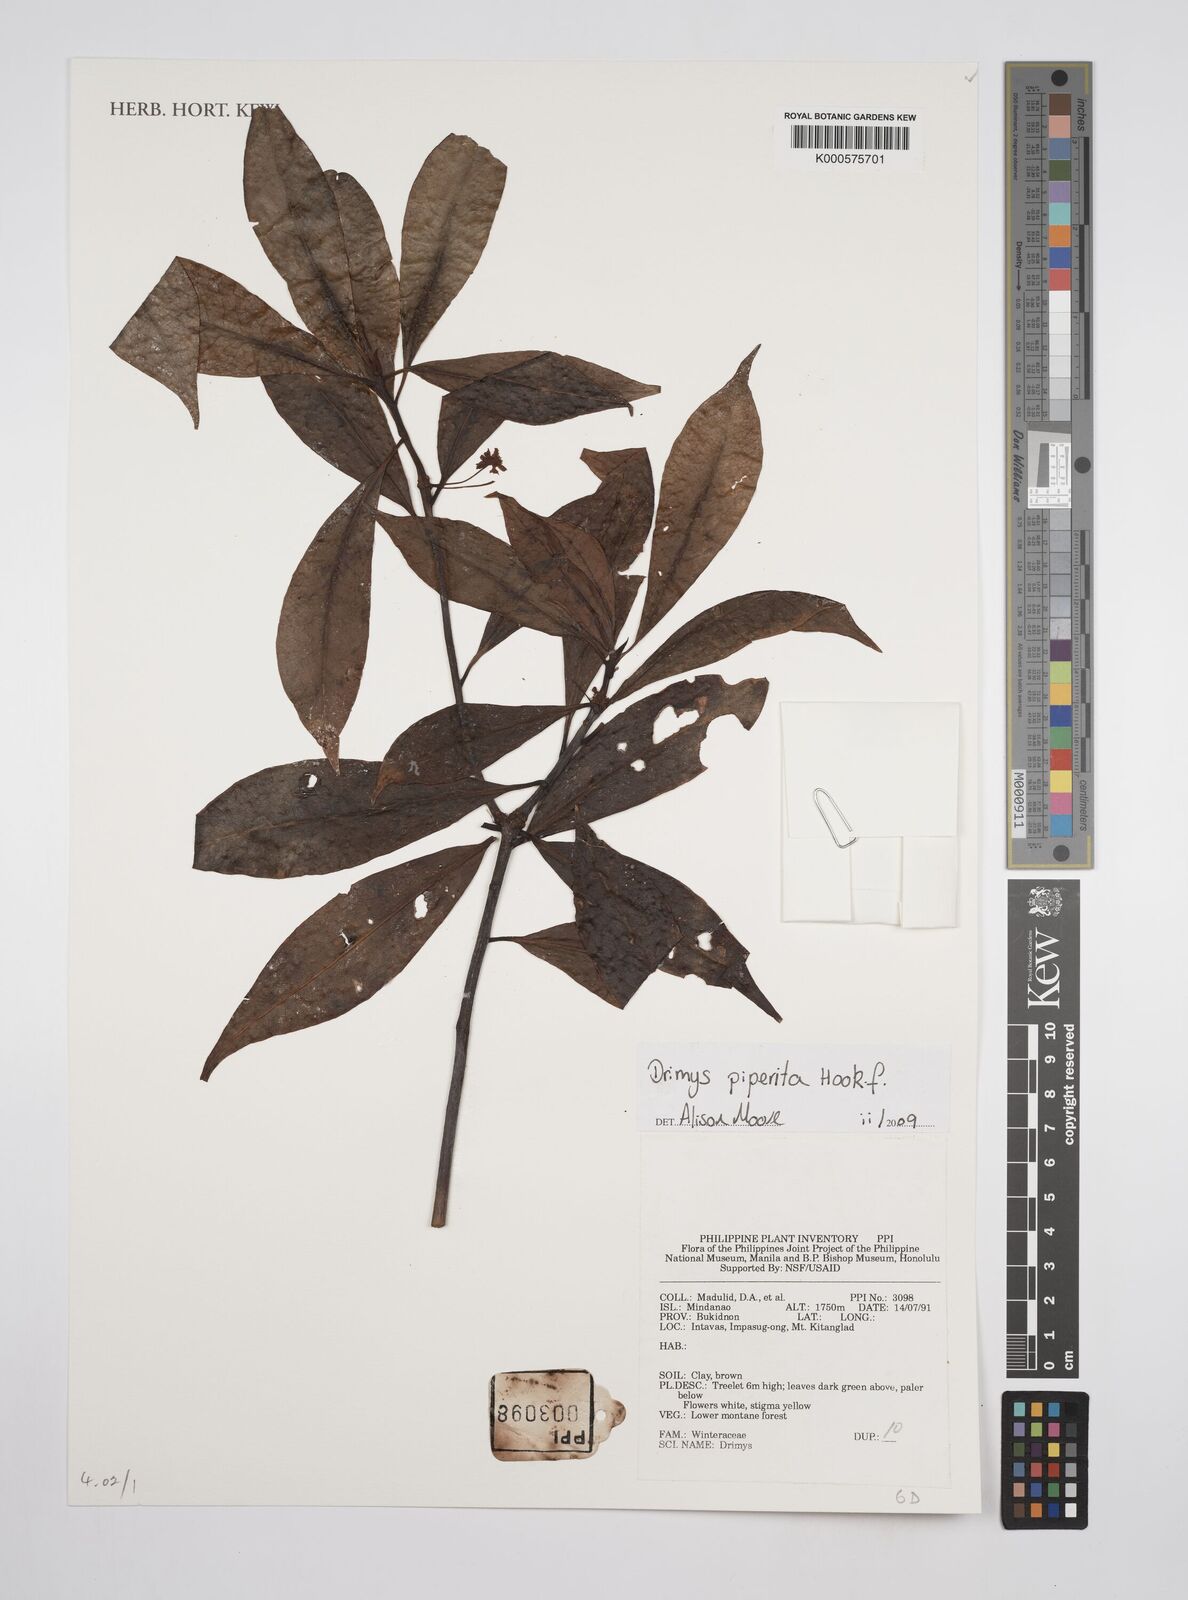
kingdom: Plantae
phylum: Tracheophyta
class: Magnoliopsida
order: Canellales
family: Winteraceae
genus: Drimys
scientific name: Drimys piperita
